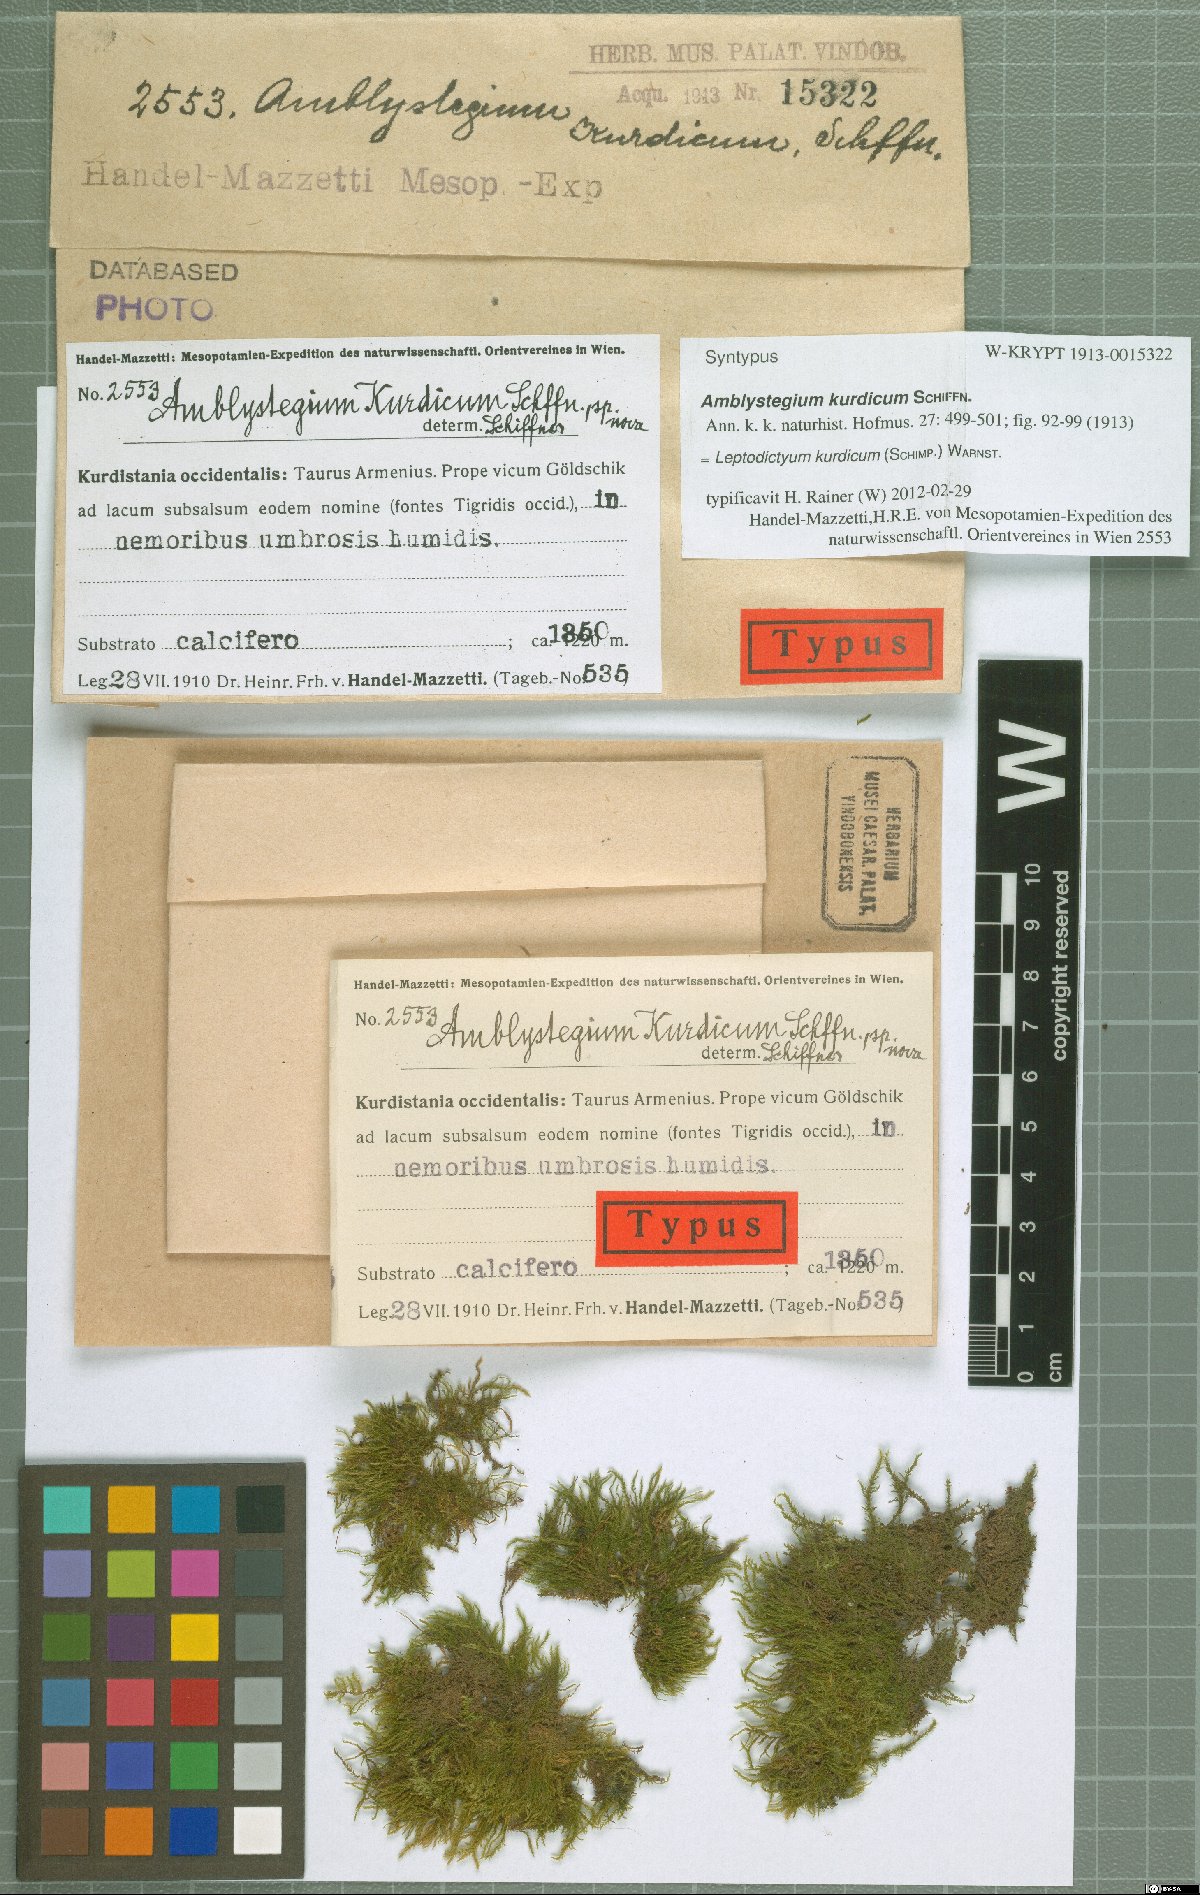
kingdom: Plantae
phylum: Bryophyta
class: Bryopsida
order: Hypnales
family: Amblystegiaceae
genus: Leptodictyum
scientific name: Leptodictyum kurdicum
